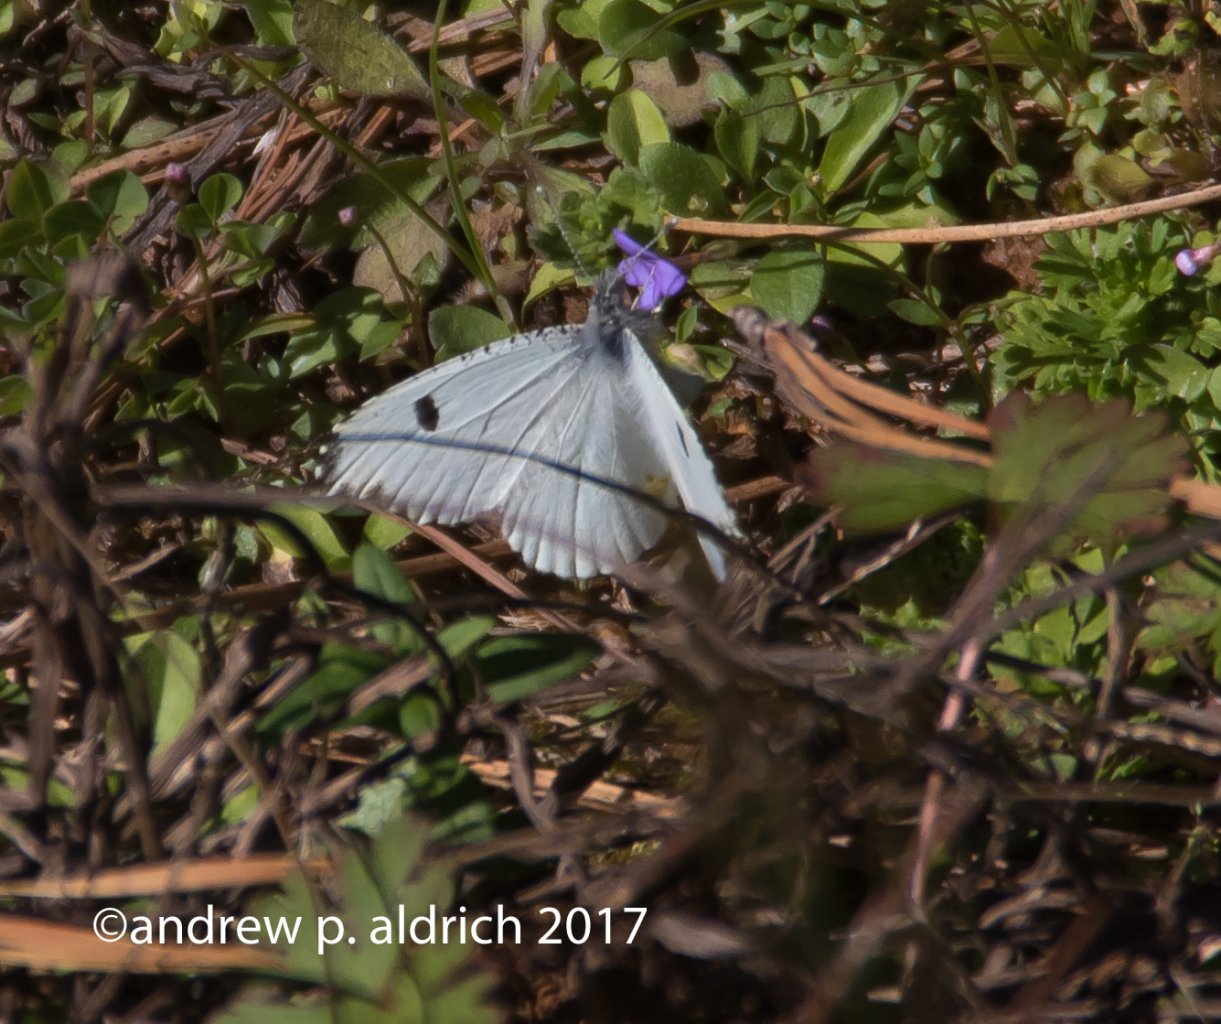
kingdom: Animalia
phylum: Arthropoda
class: Insecta
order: Lepidoptera
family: Pieridae
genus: Anthocharis
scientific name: Anthocharis midea
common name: Falcate Orangetip
